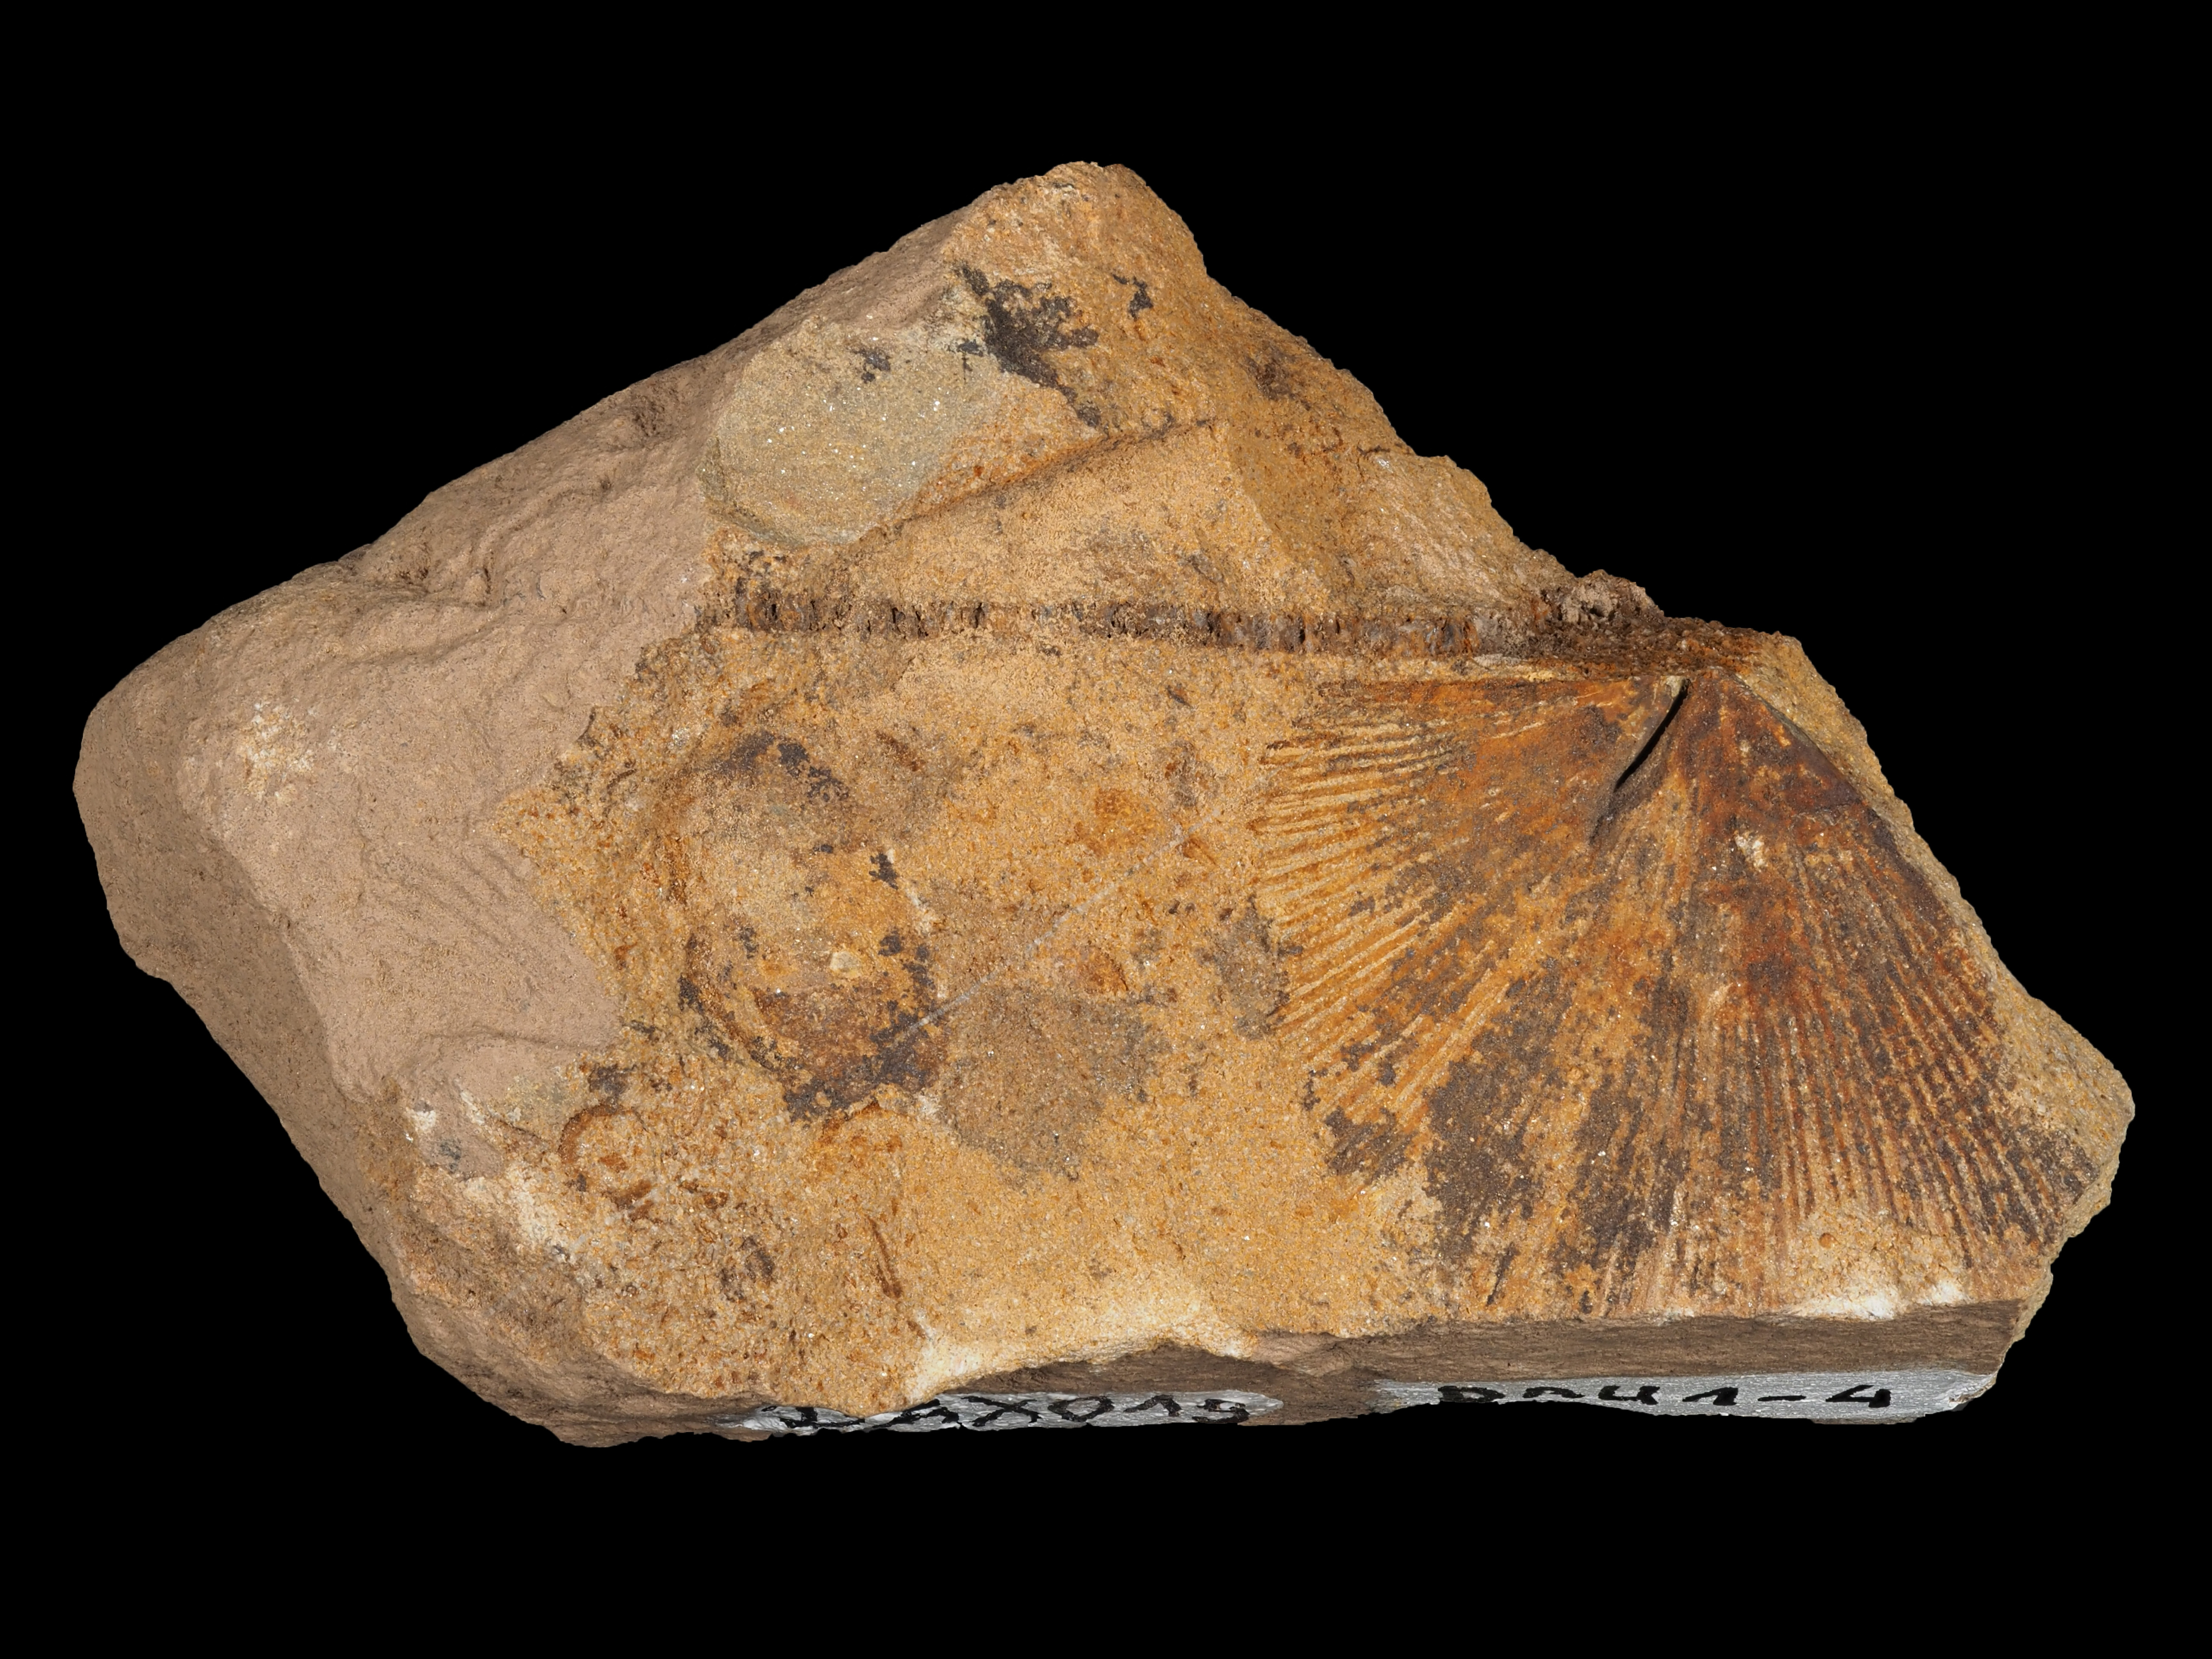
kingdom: Animalia
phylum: Brachiopoda
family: Stropheodontidae
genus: Strophodonta
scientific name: Strophodonta
